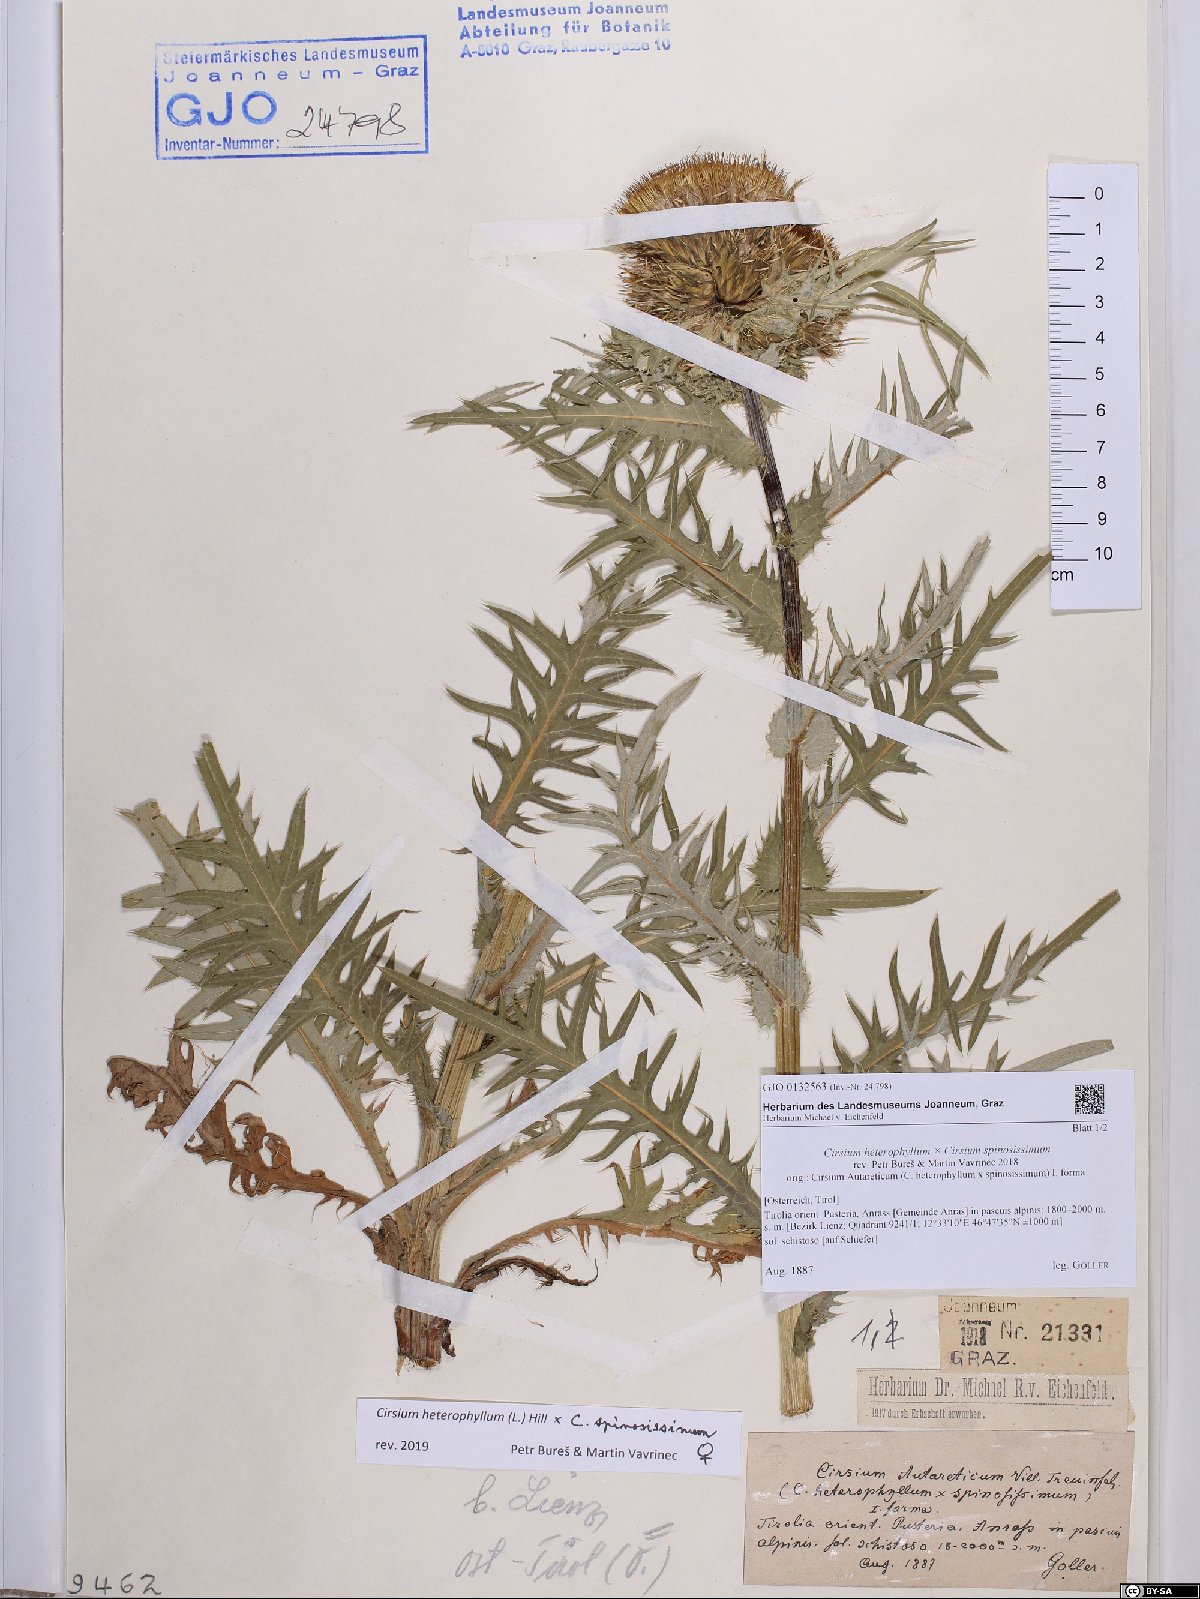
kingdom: Plantae
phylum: Tracheophyta
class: Magnoliopsida
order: Asterales
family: Asteraceae
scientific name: Asteraceae
